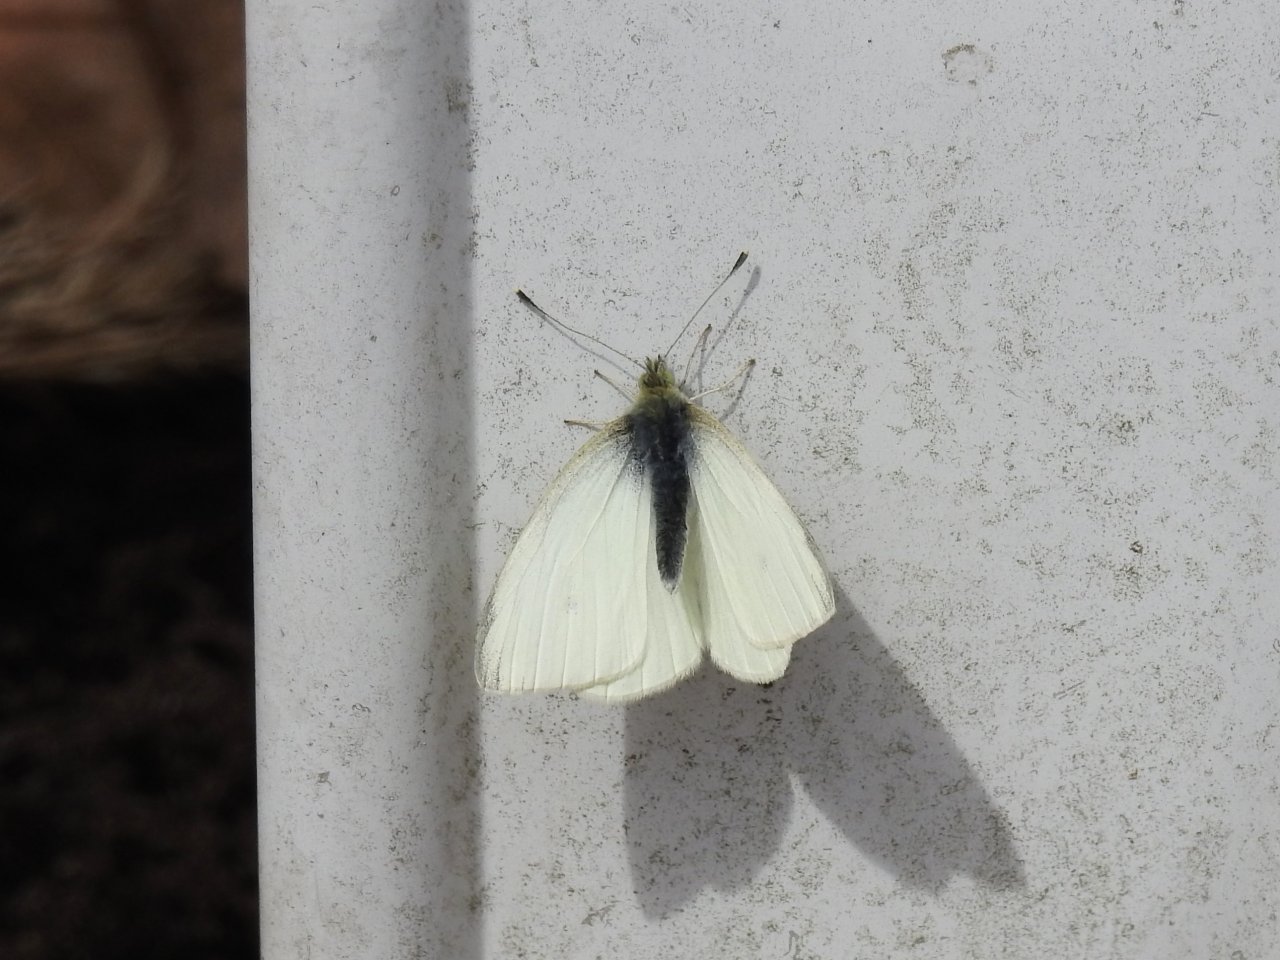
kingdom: Animalia
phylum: Arthropoda
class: Insecta
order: Lepidoptera
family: Pieridae
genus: Pieris
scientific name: Pieris rapae
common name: Cabbage White
